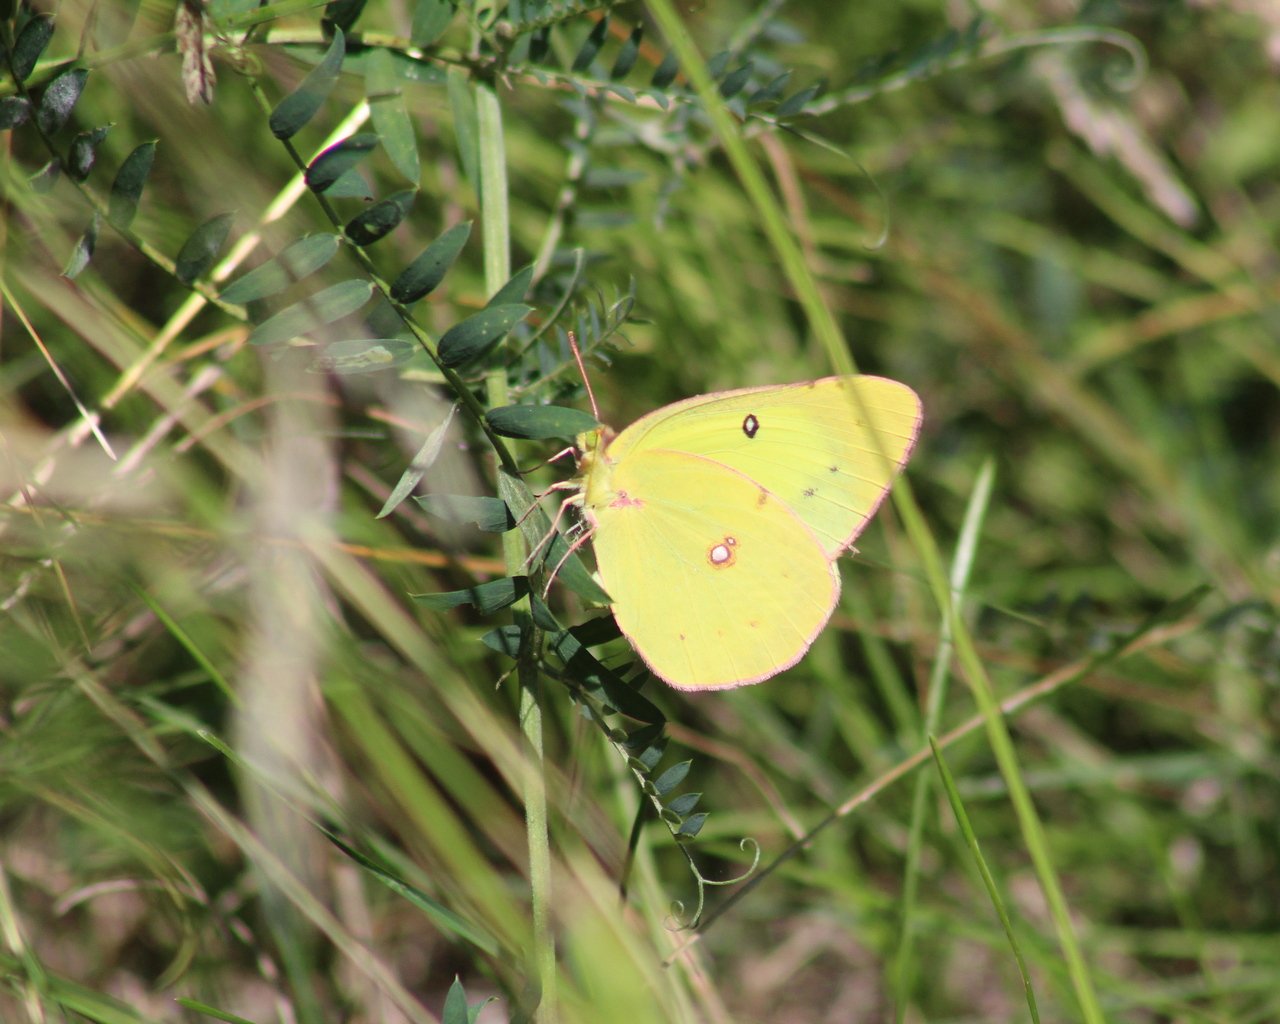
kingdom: Animalia
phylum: Arthropoda
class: Insecta
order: Lepidoptera
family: Pieridae
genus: Colias
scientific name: Colias philodice
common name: Clouded Sulphur
